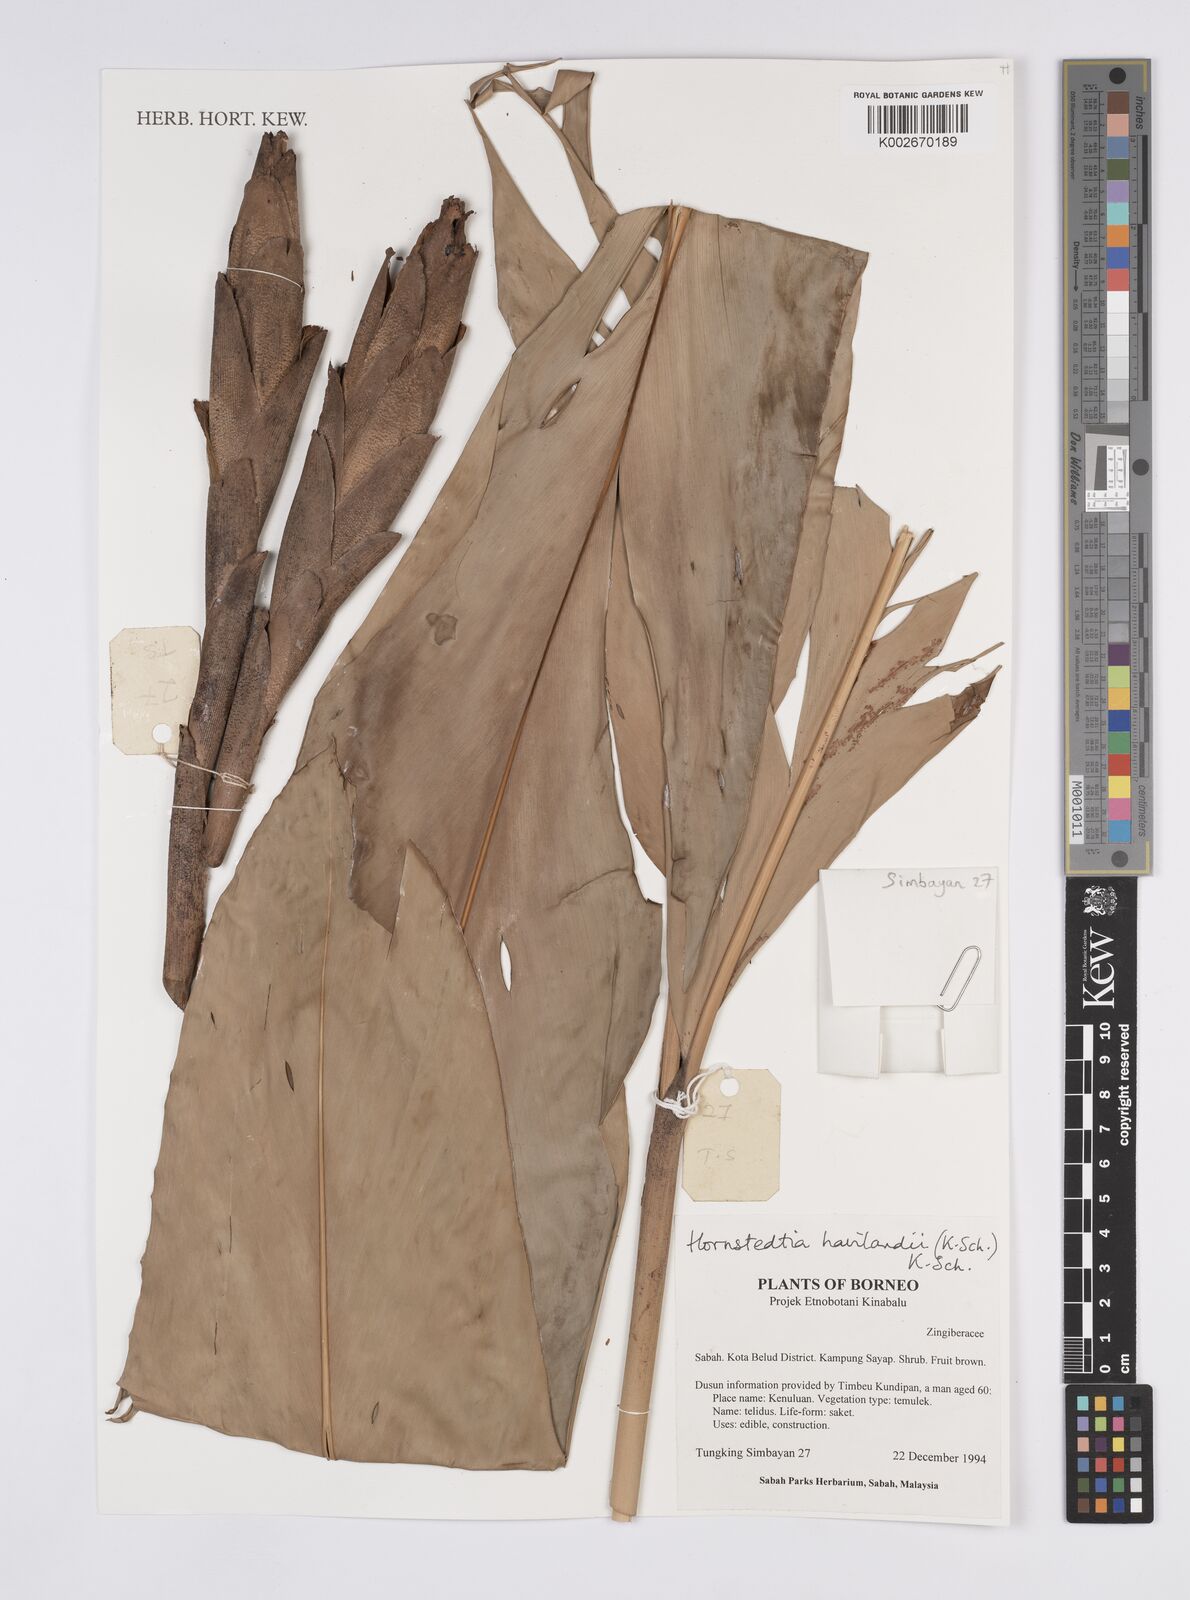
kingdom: Plantae
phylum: Tracheophyta
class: Liliopsida
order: Zingiberales
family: Zingiberaceae
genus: Hornstedtia
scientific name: Hornstedtia havilandii
